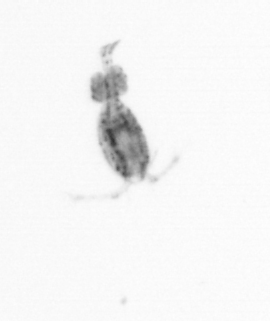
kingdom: Animalia
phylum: Arthropoda
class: Copepoda
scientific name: Copepoda
